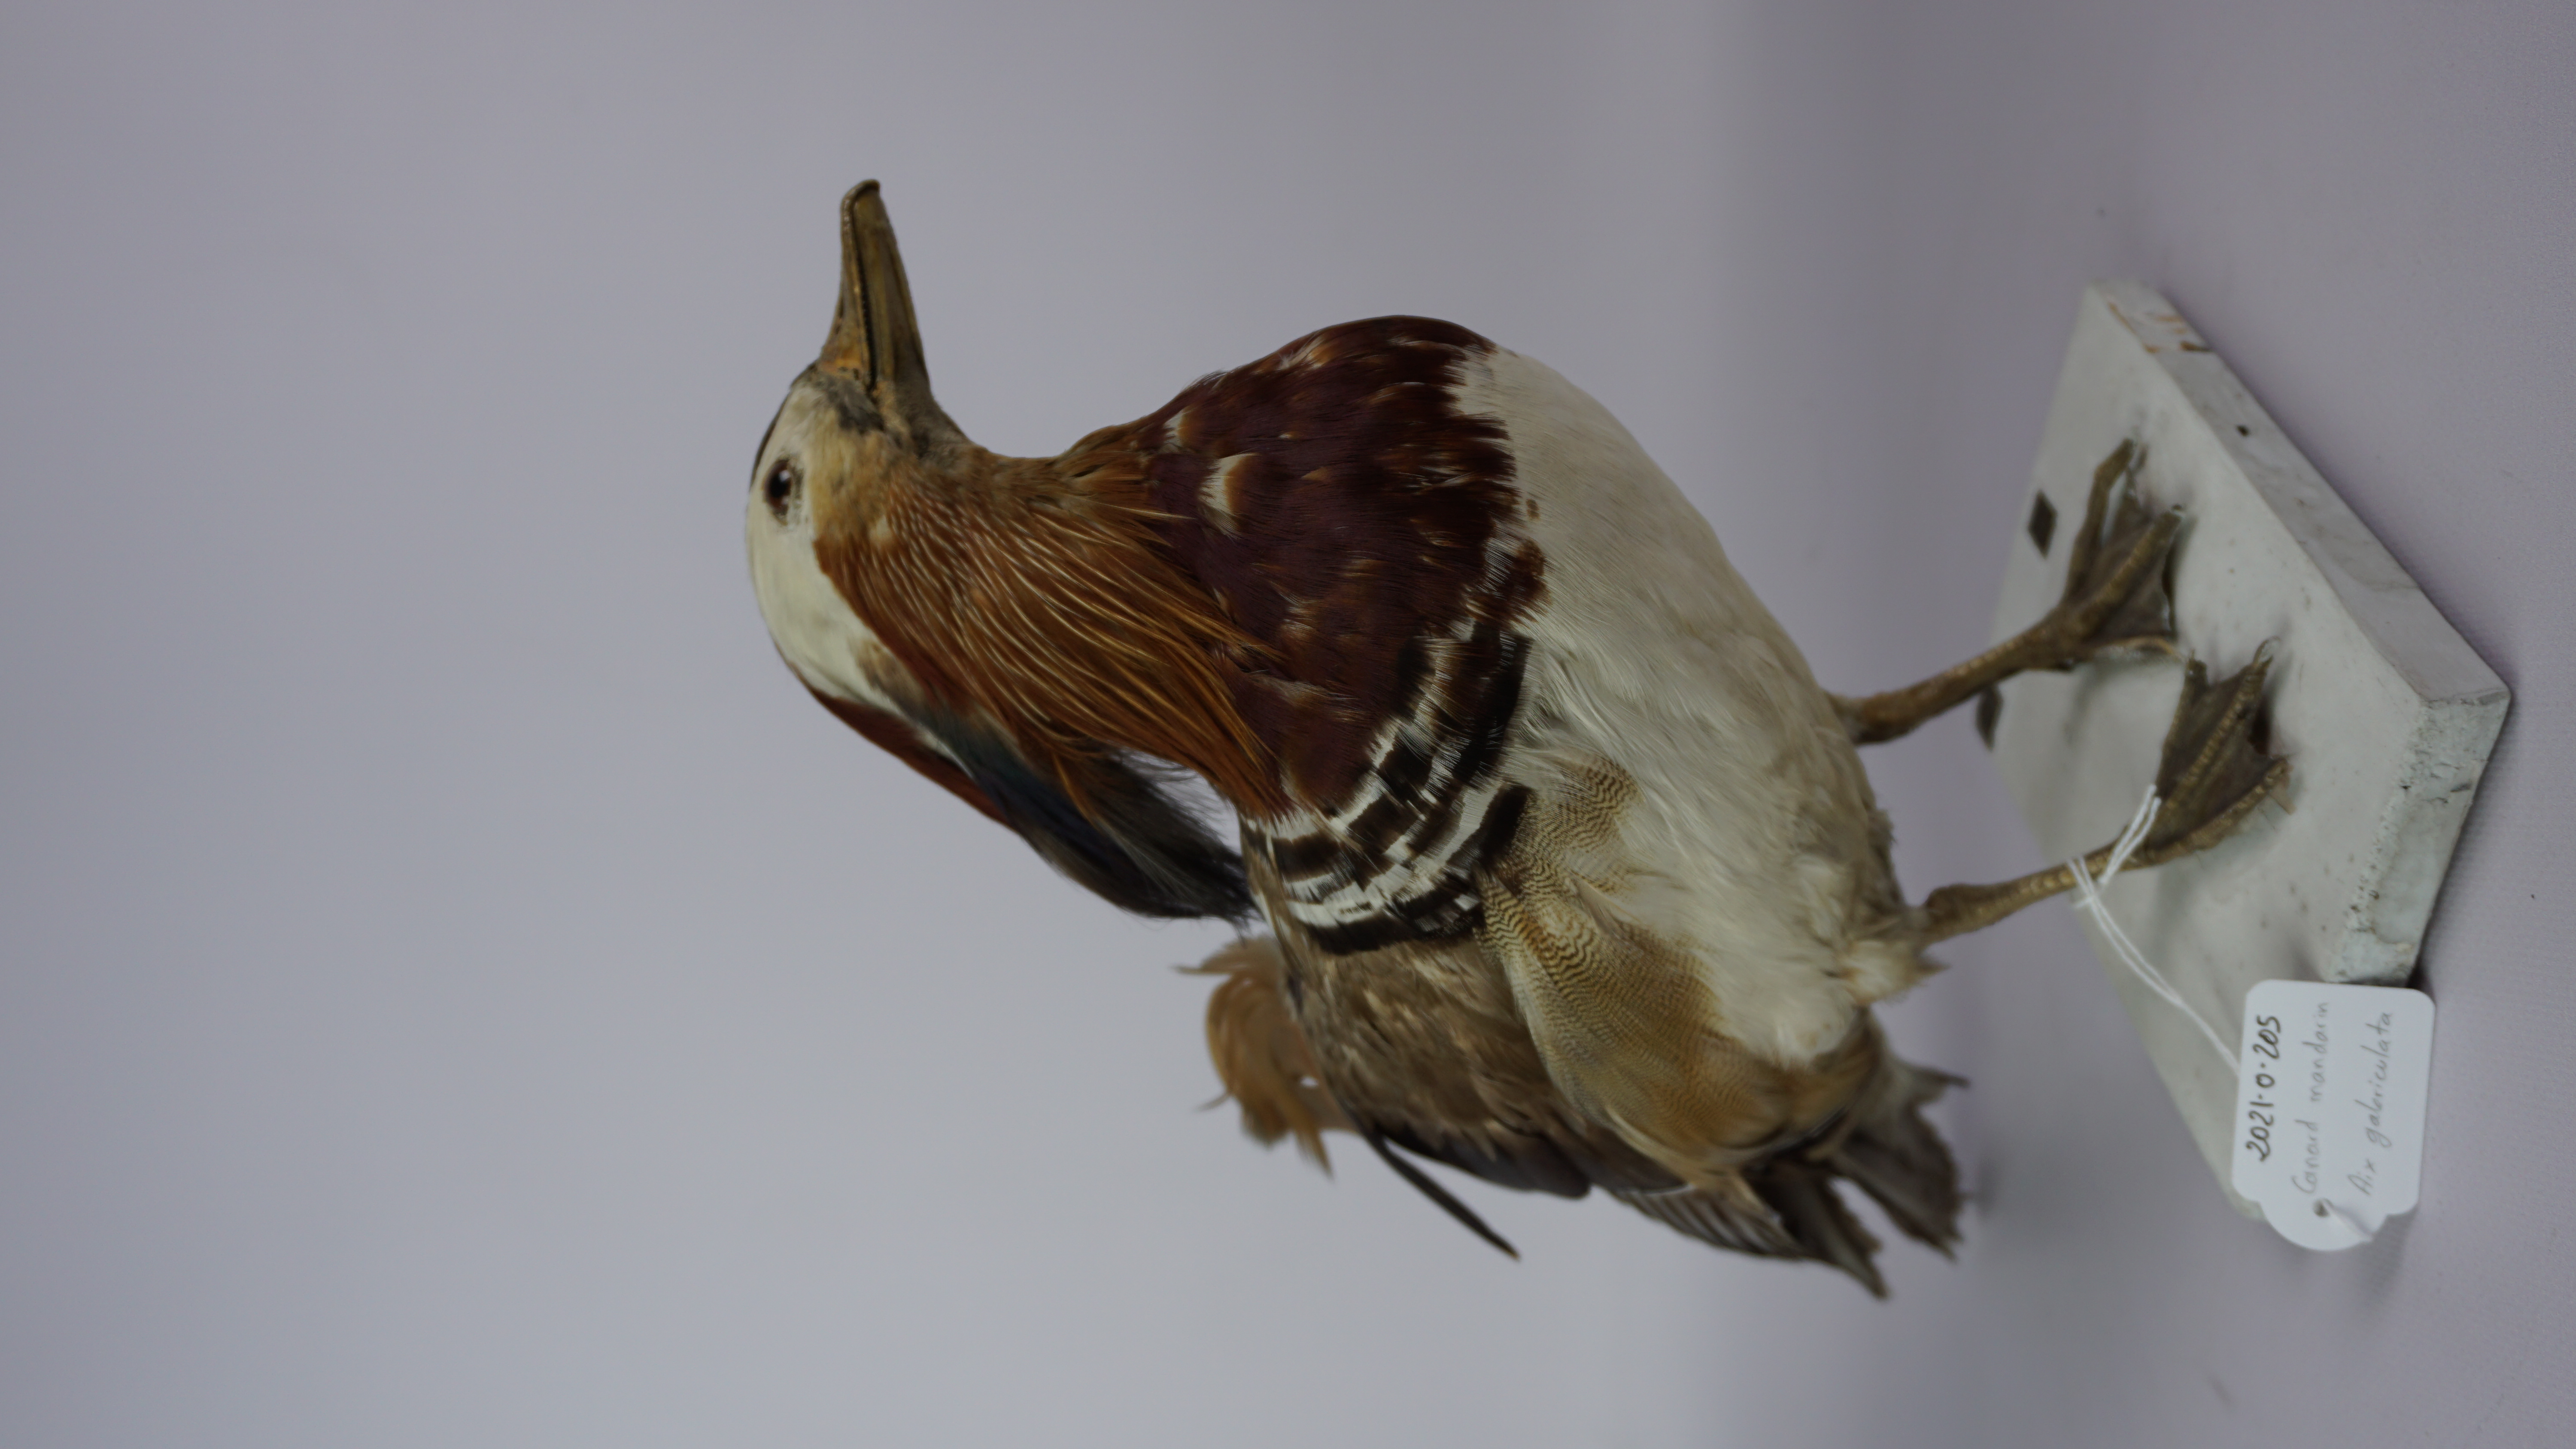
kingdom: Animalia
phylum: Chordata
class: Aves
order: Anseriformes
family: Anatidae
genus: Aix
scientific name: Aix galericulata
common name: Mandarin duck
